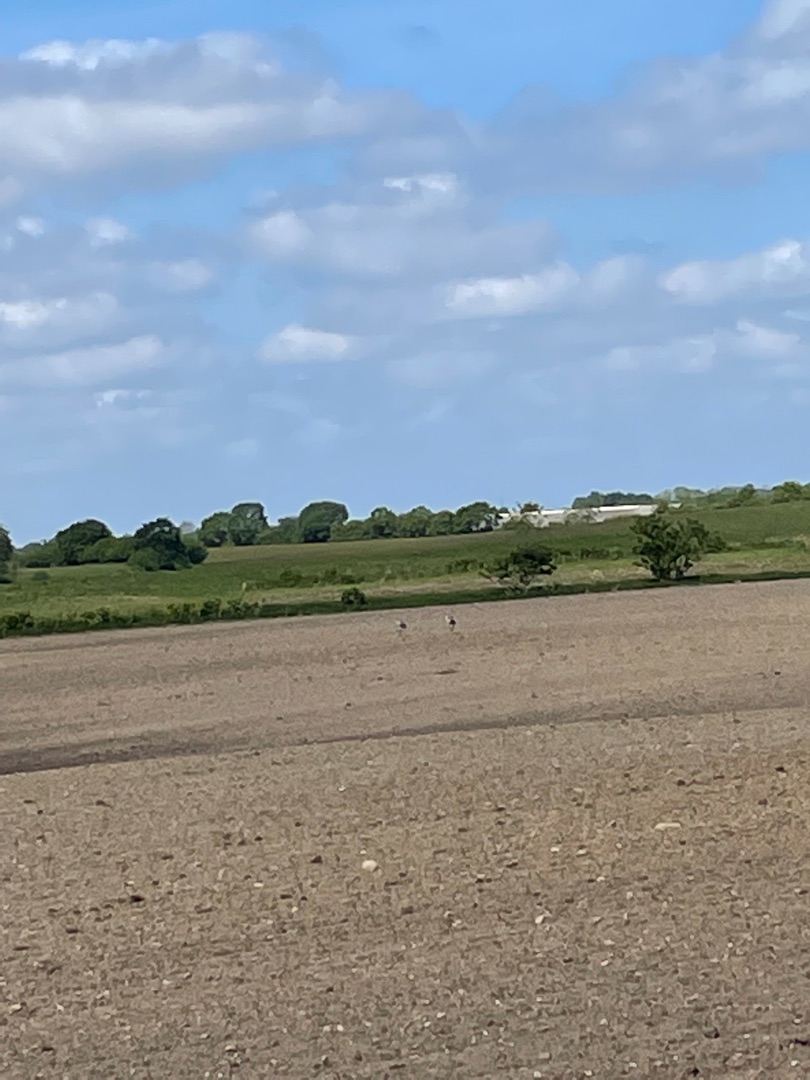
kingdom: Animalia
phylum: Chordata
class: Aves
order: Gruiformes
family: Gruidae
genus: Grus
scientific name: Grus grus
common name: Trane
